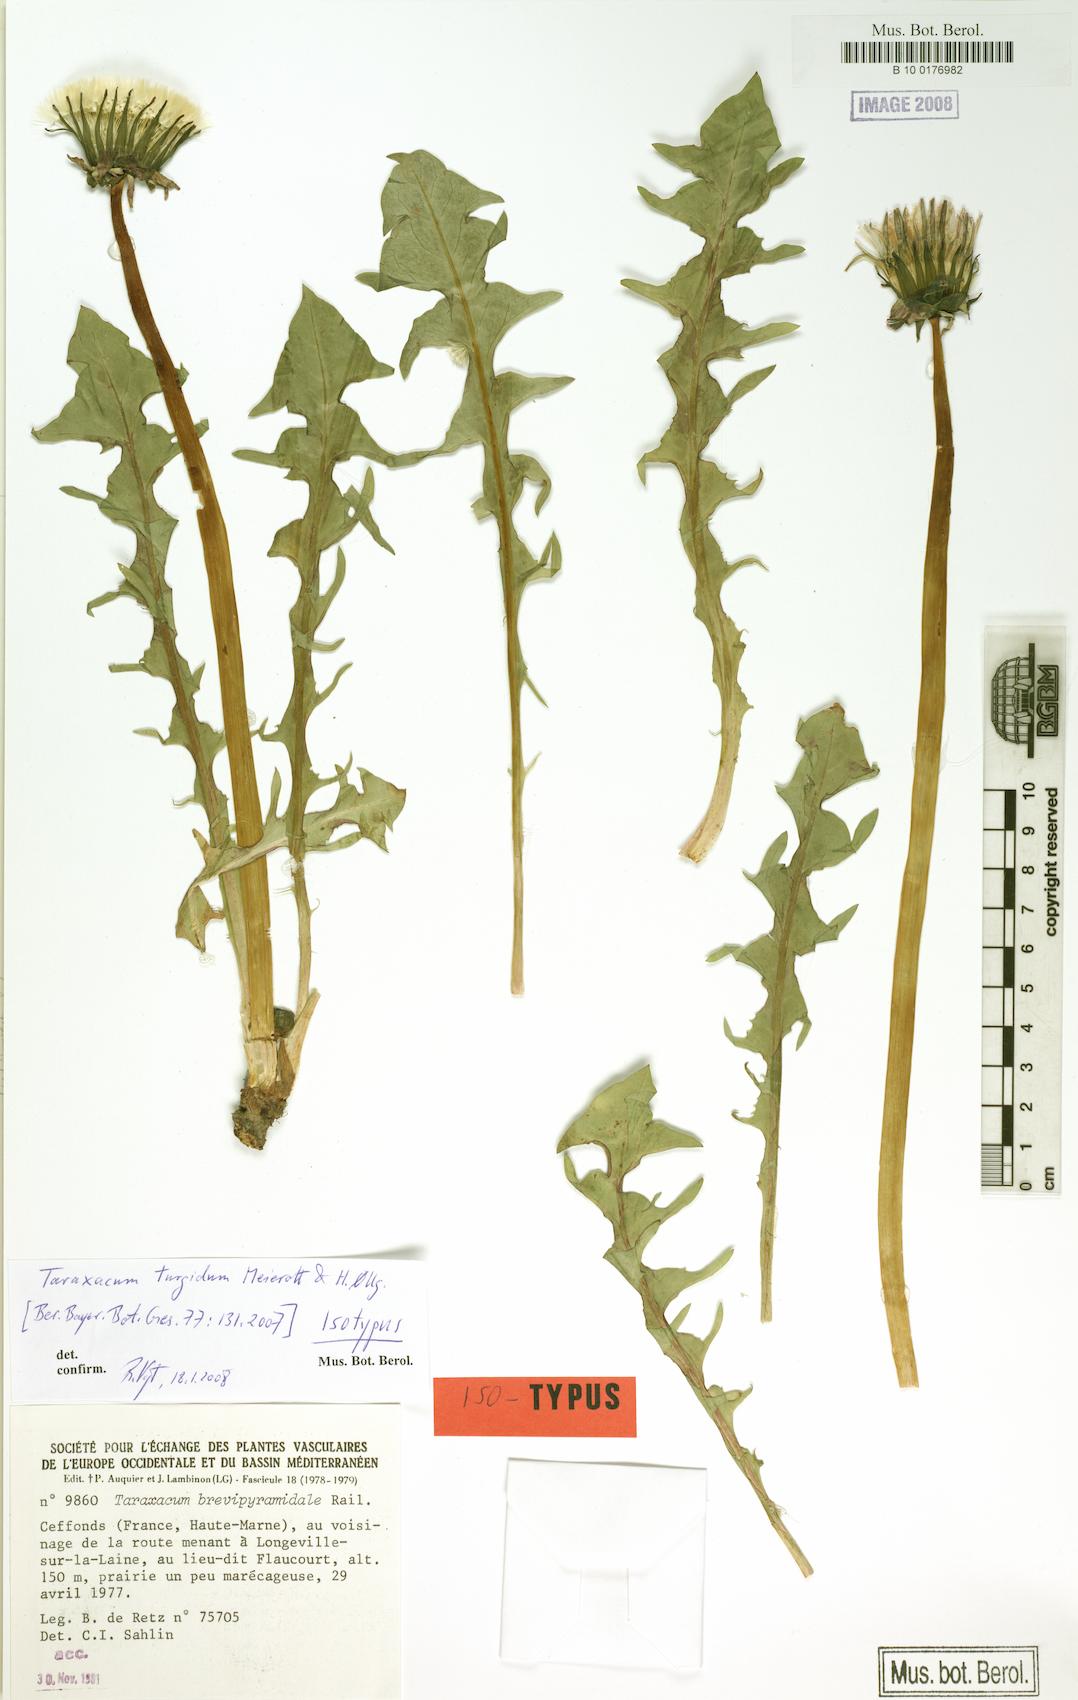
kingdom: Plantae
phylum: Tracheophyta
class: Magnoliopsida
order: Asterales
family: Asteraceae
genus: Taraxacum
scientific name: Taraxacum turgidum
